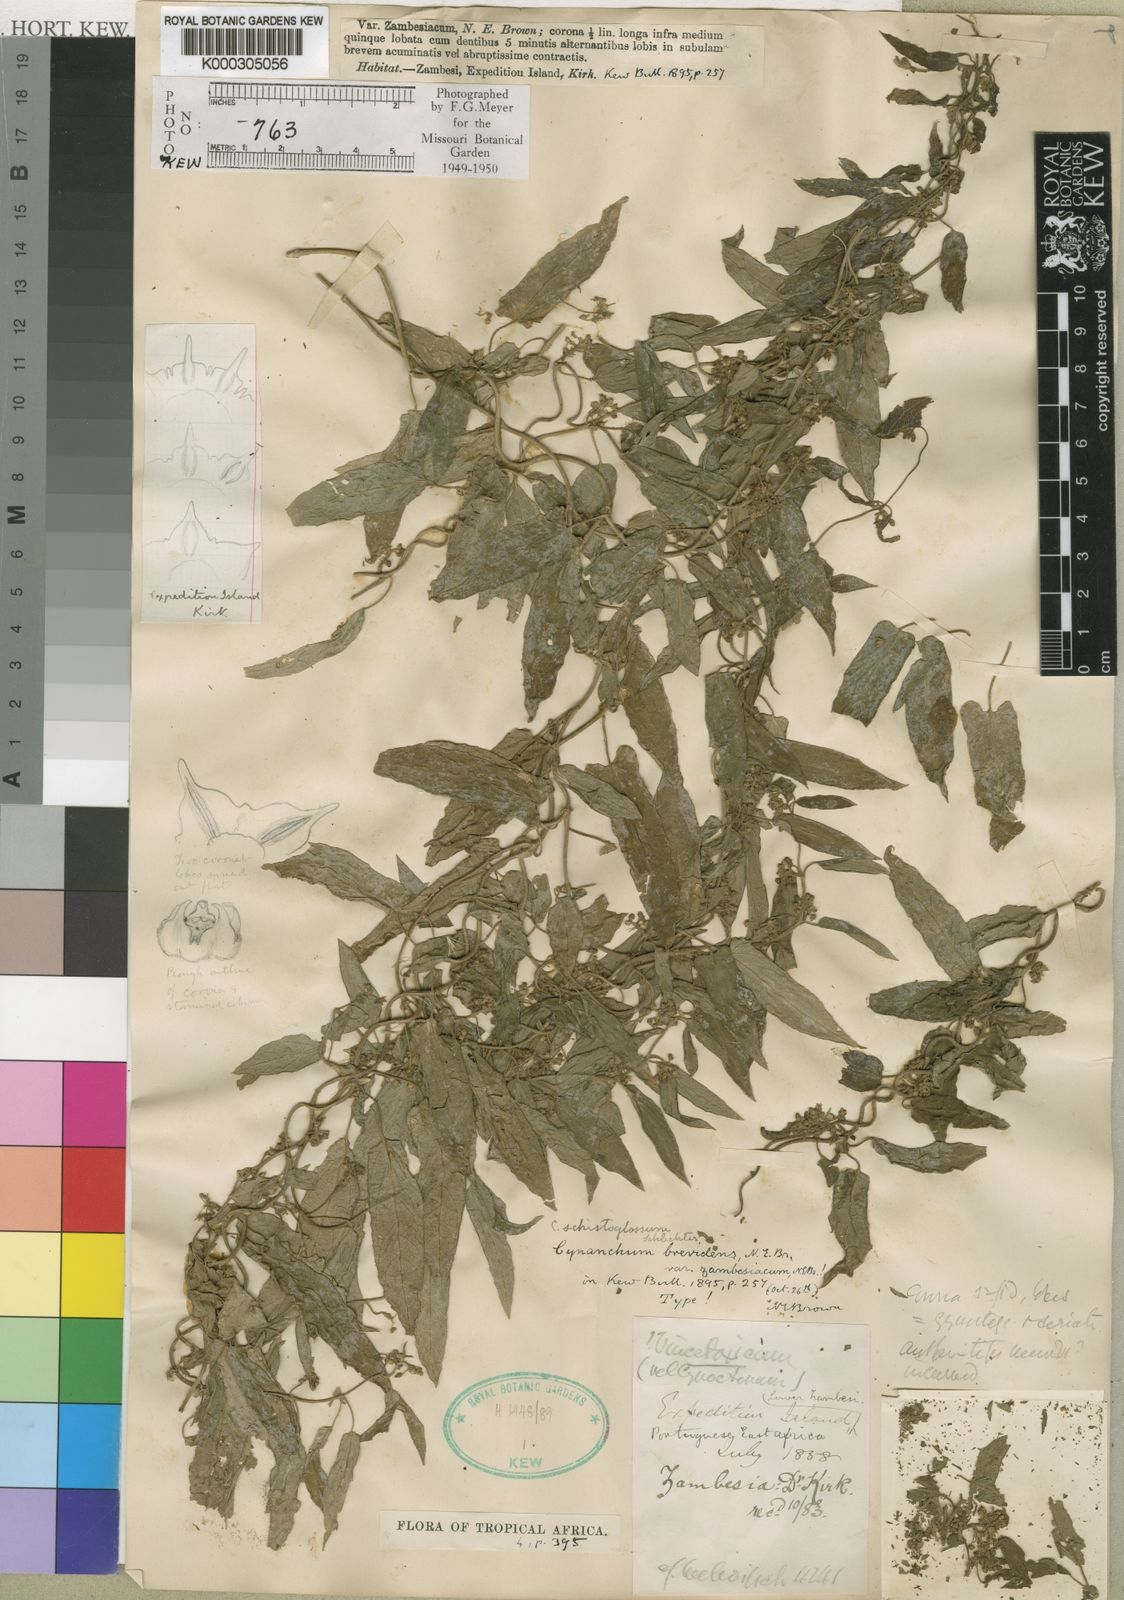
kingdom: Plantae
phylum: Tracheophyta
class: Magnoliopsida
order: Gentianales
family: Apocynaceae
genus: Cynanchum
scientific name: Cynanchum schistoglossum
